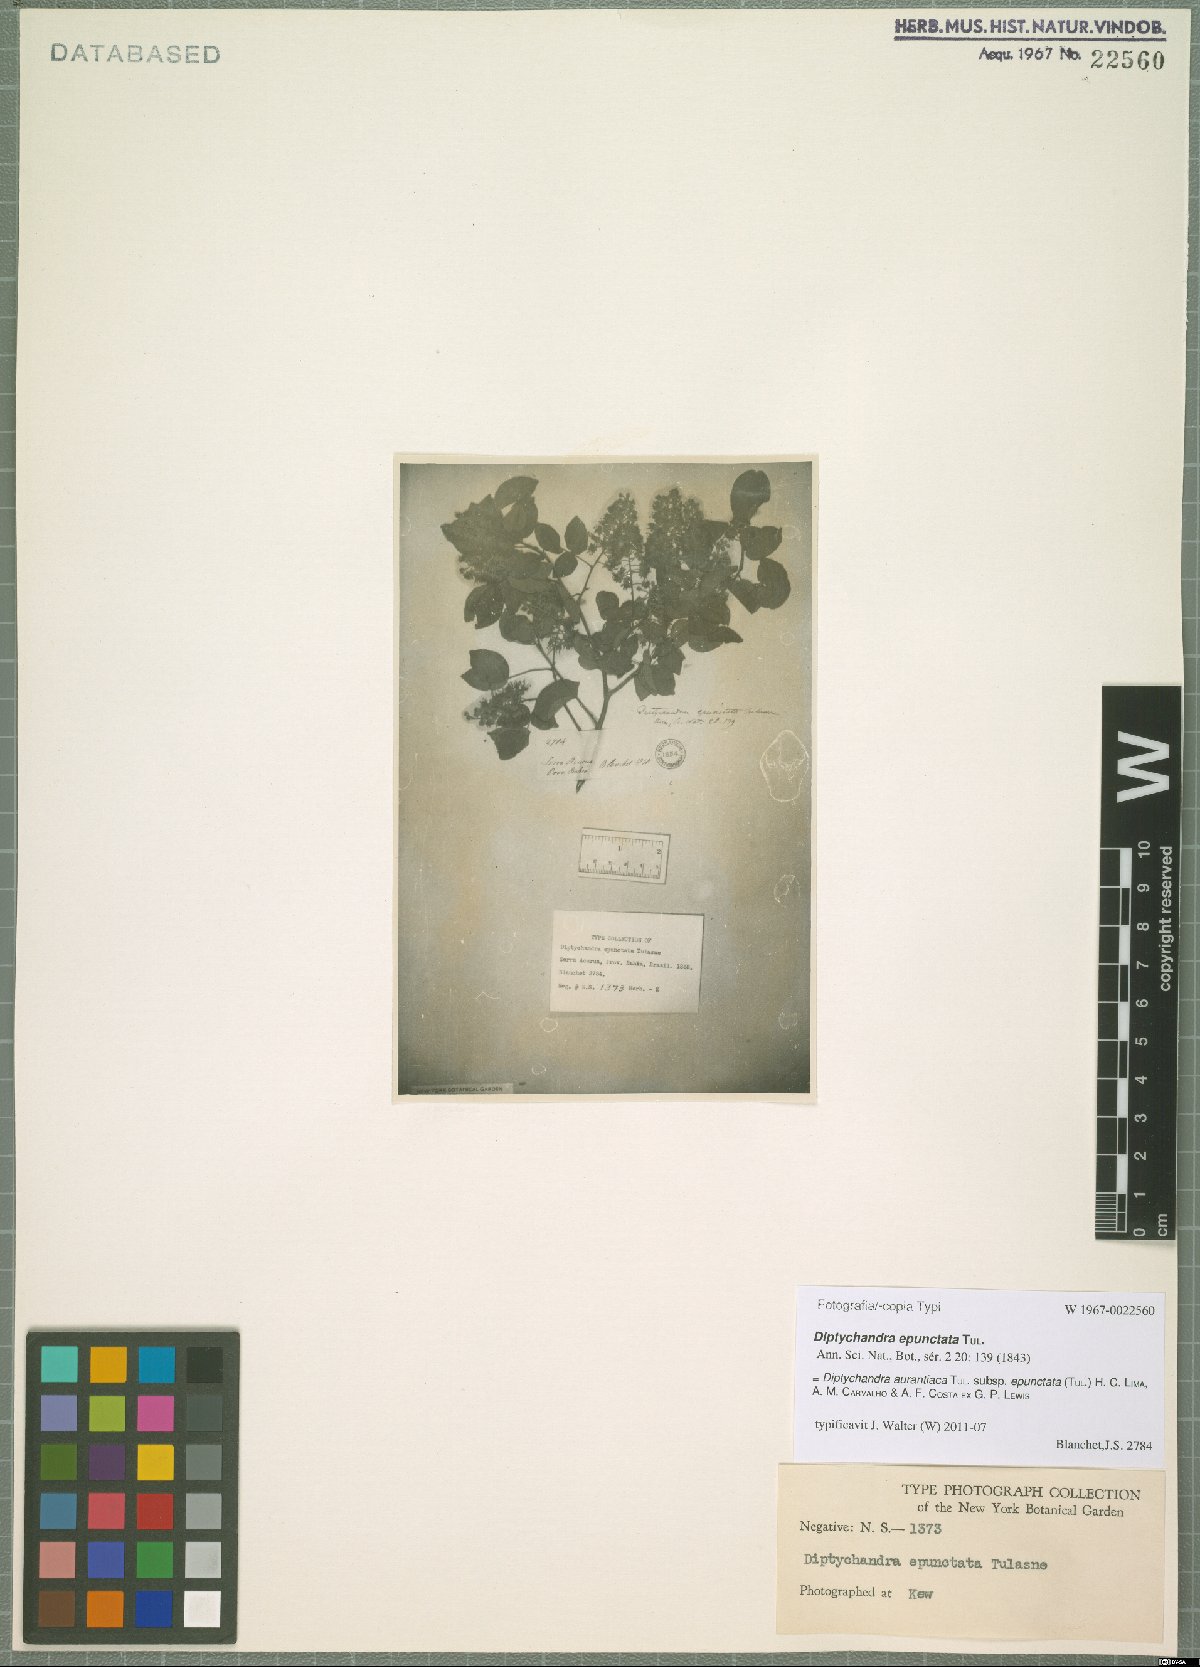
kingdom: Plantae
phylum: Tracheophyta
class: Magnoliopsida
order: Fabales
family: Fabaceae
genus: Diptychandra
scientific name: Diptychandra aurantiaca
